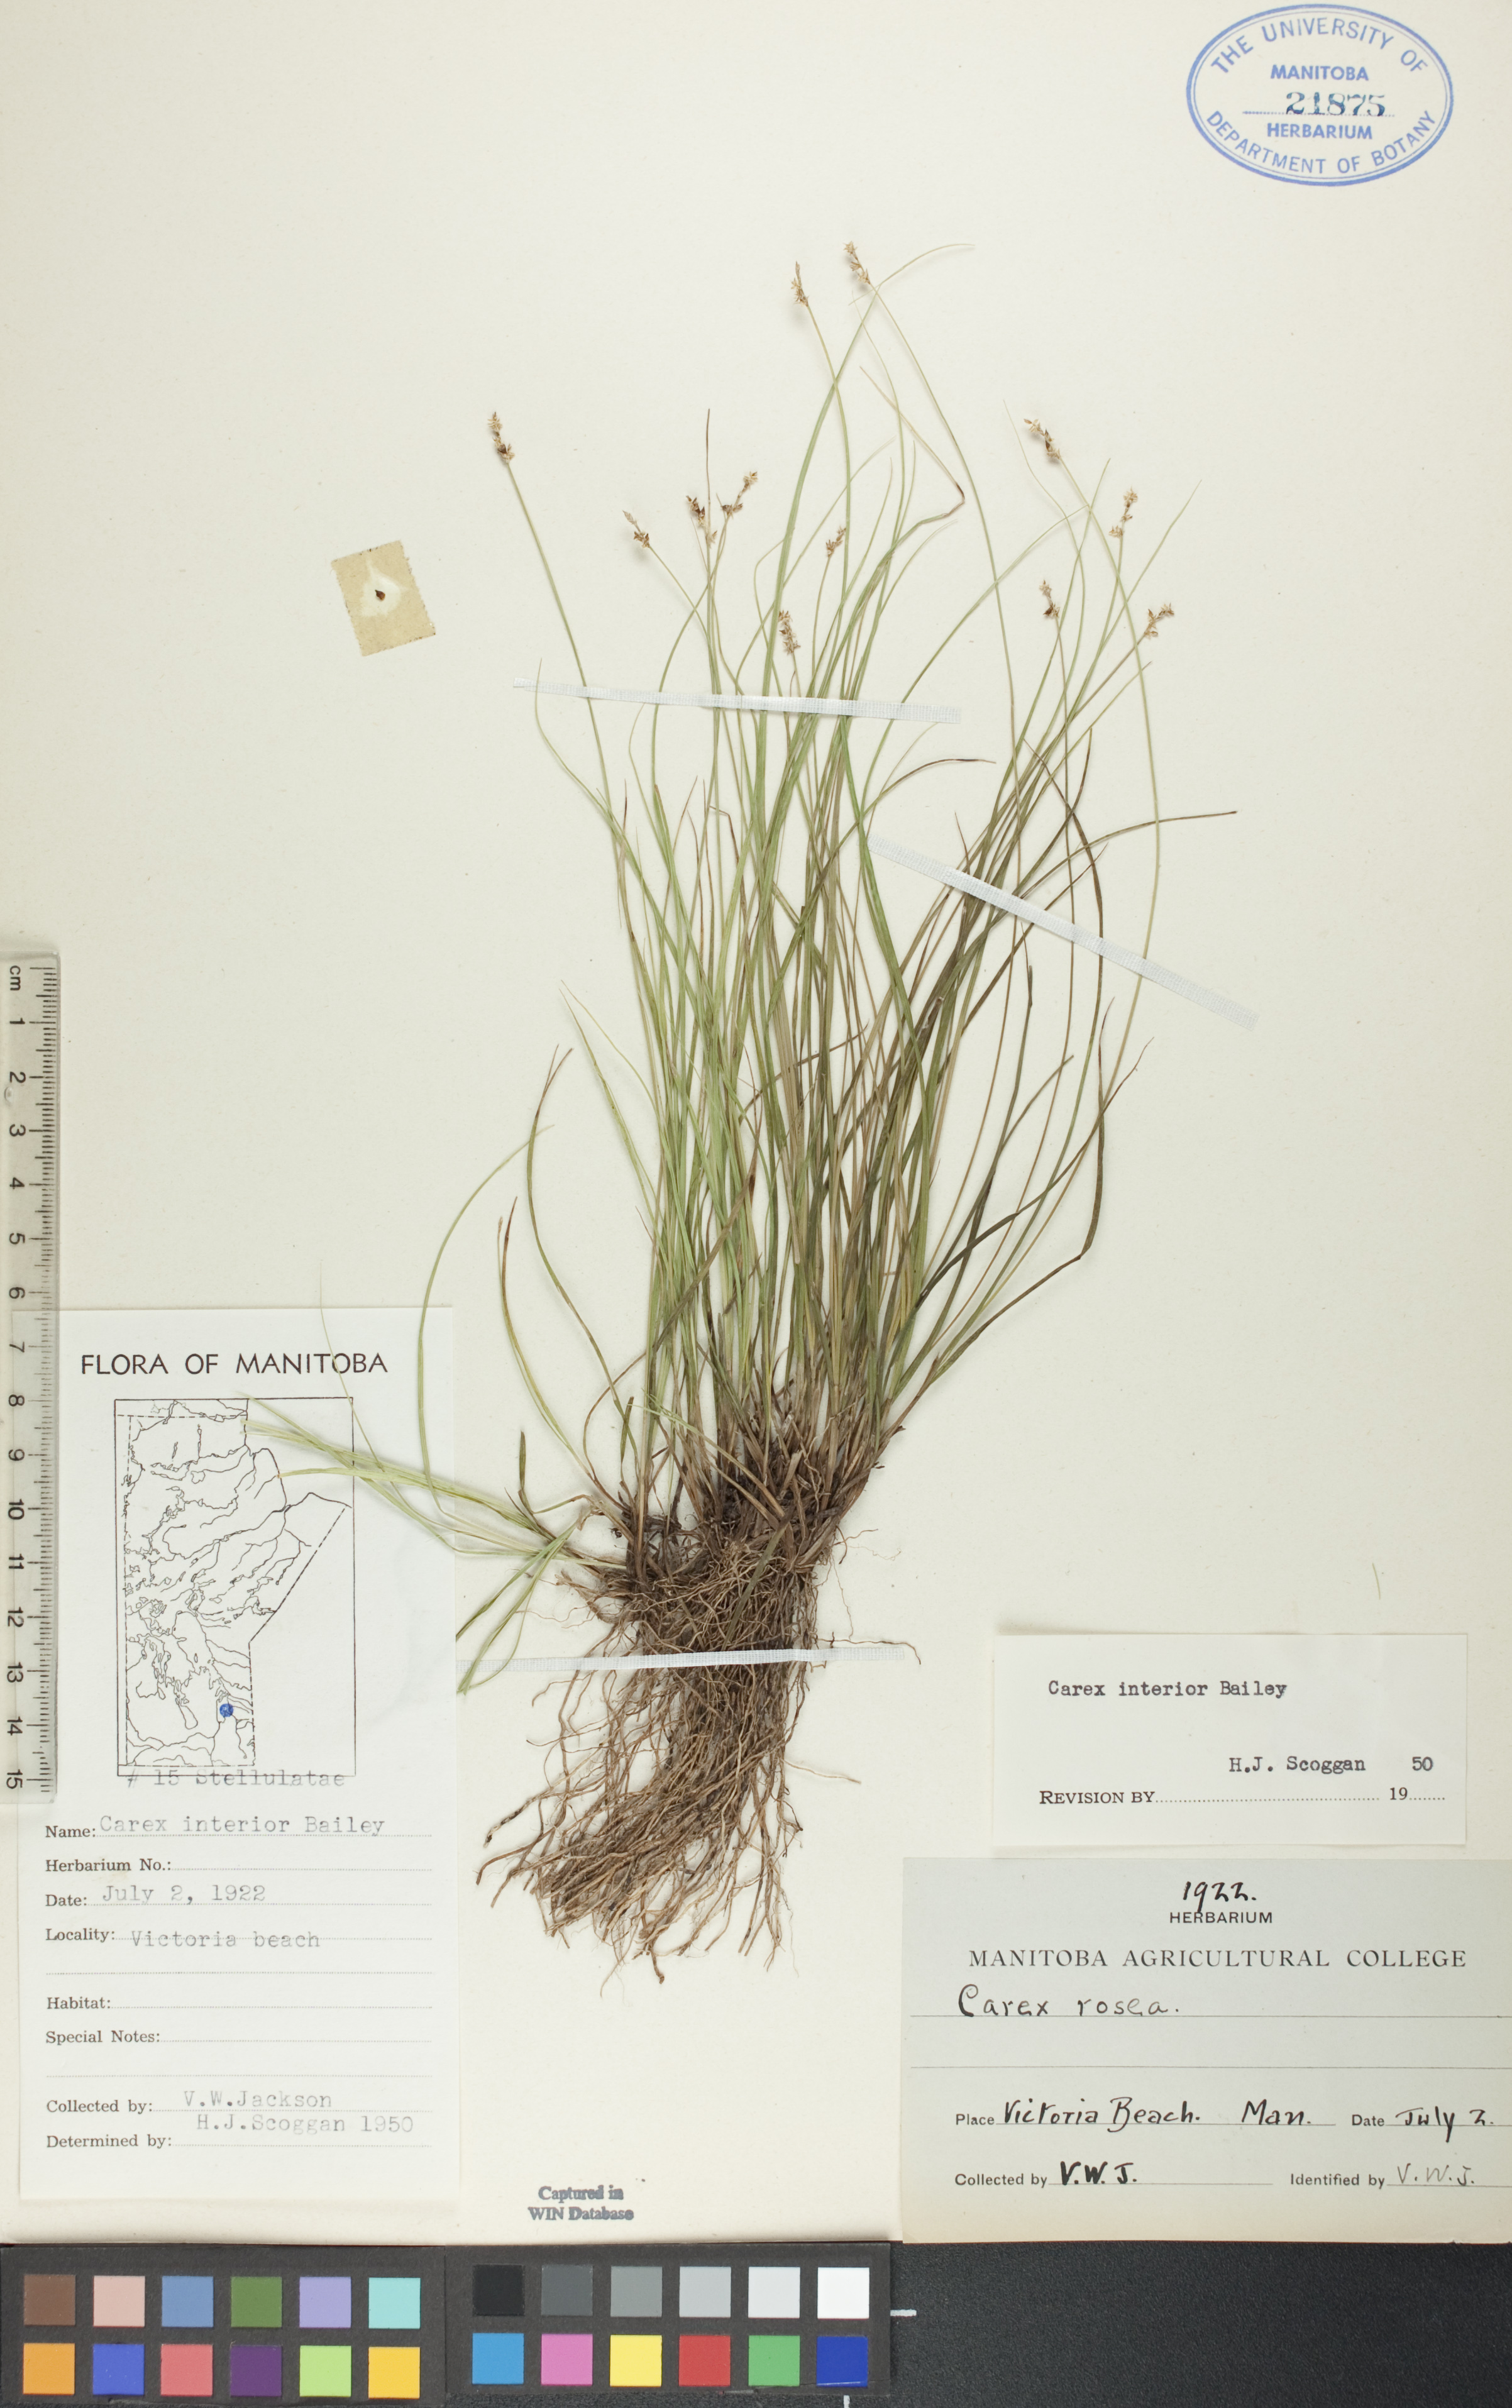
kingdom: Plantae
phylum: Tracheophyta
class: Liliopsida
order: Poales
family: Cyperaceae
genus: Carex
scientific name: Carex interior
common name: Inland sedge
